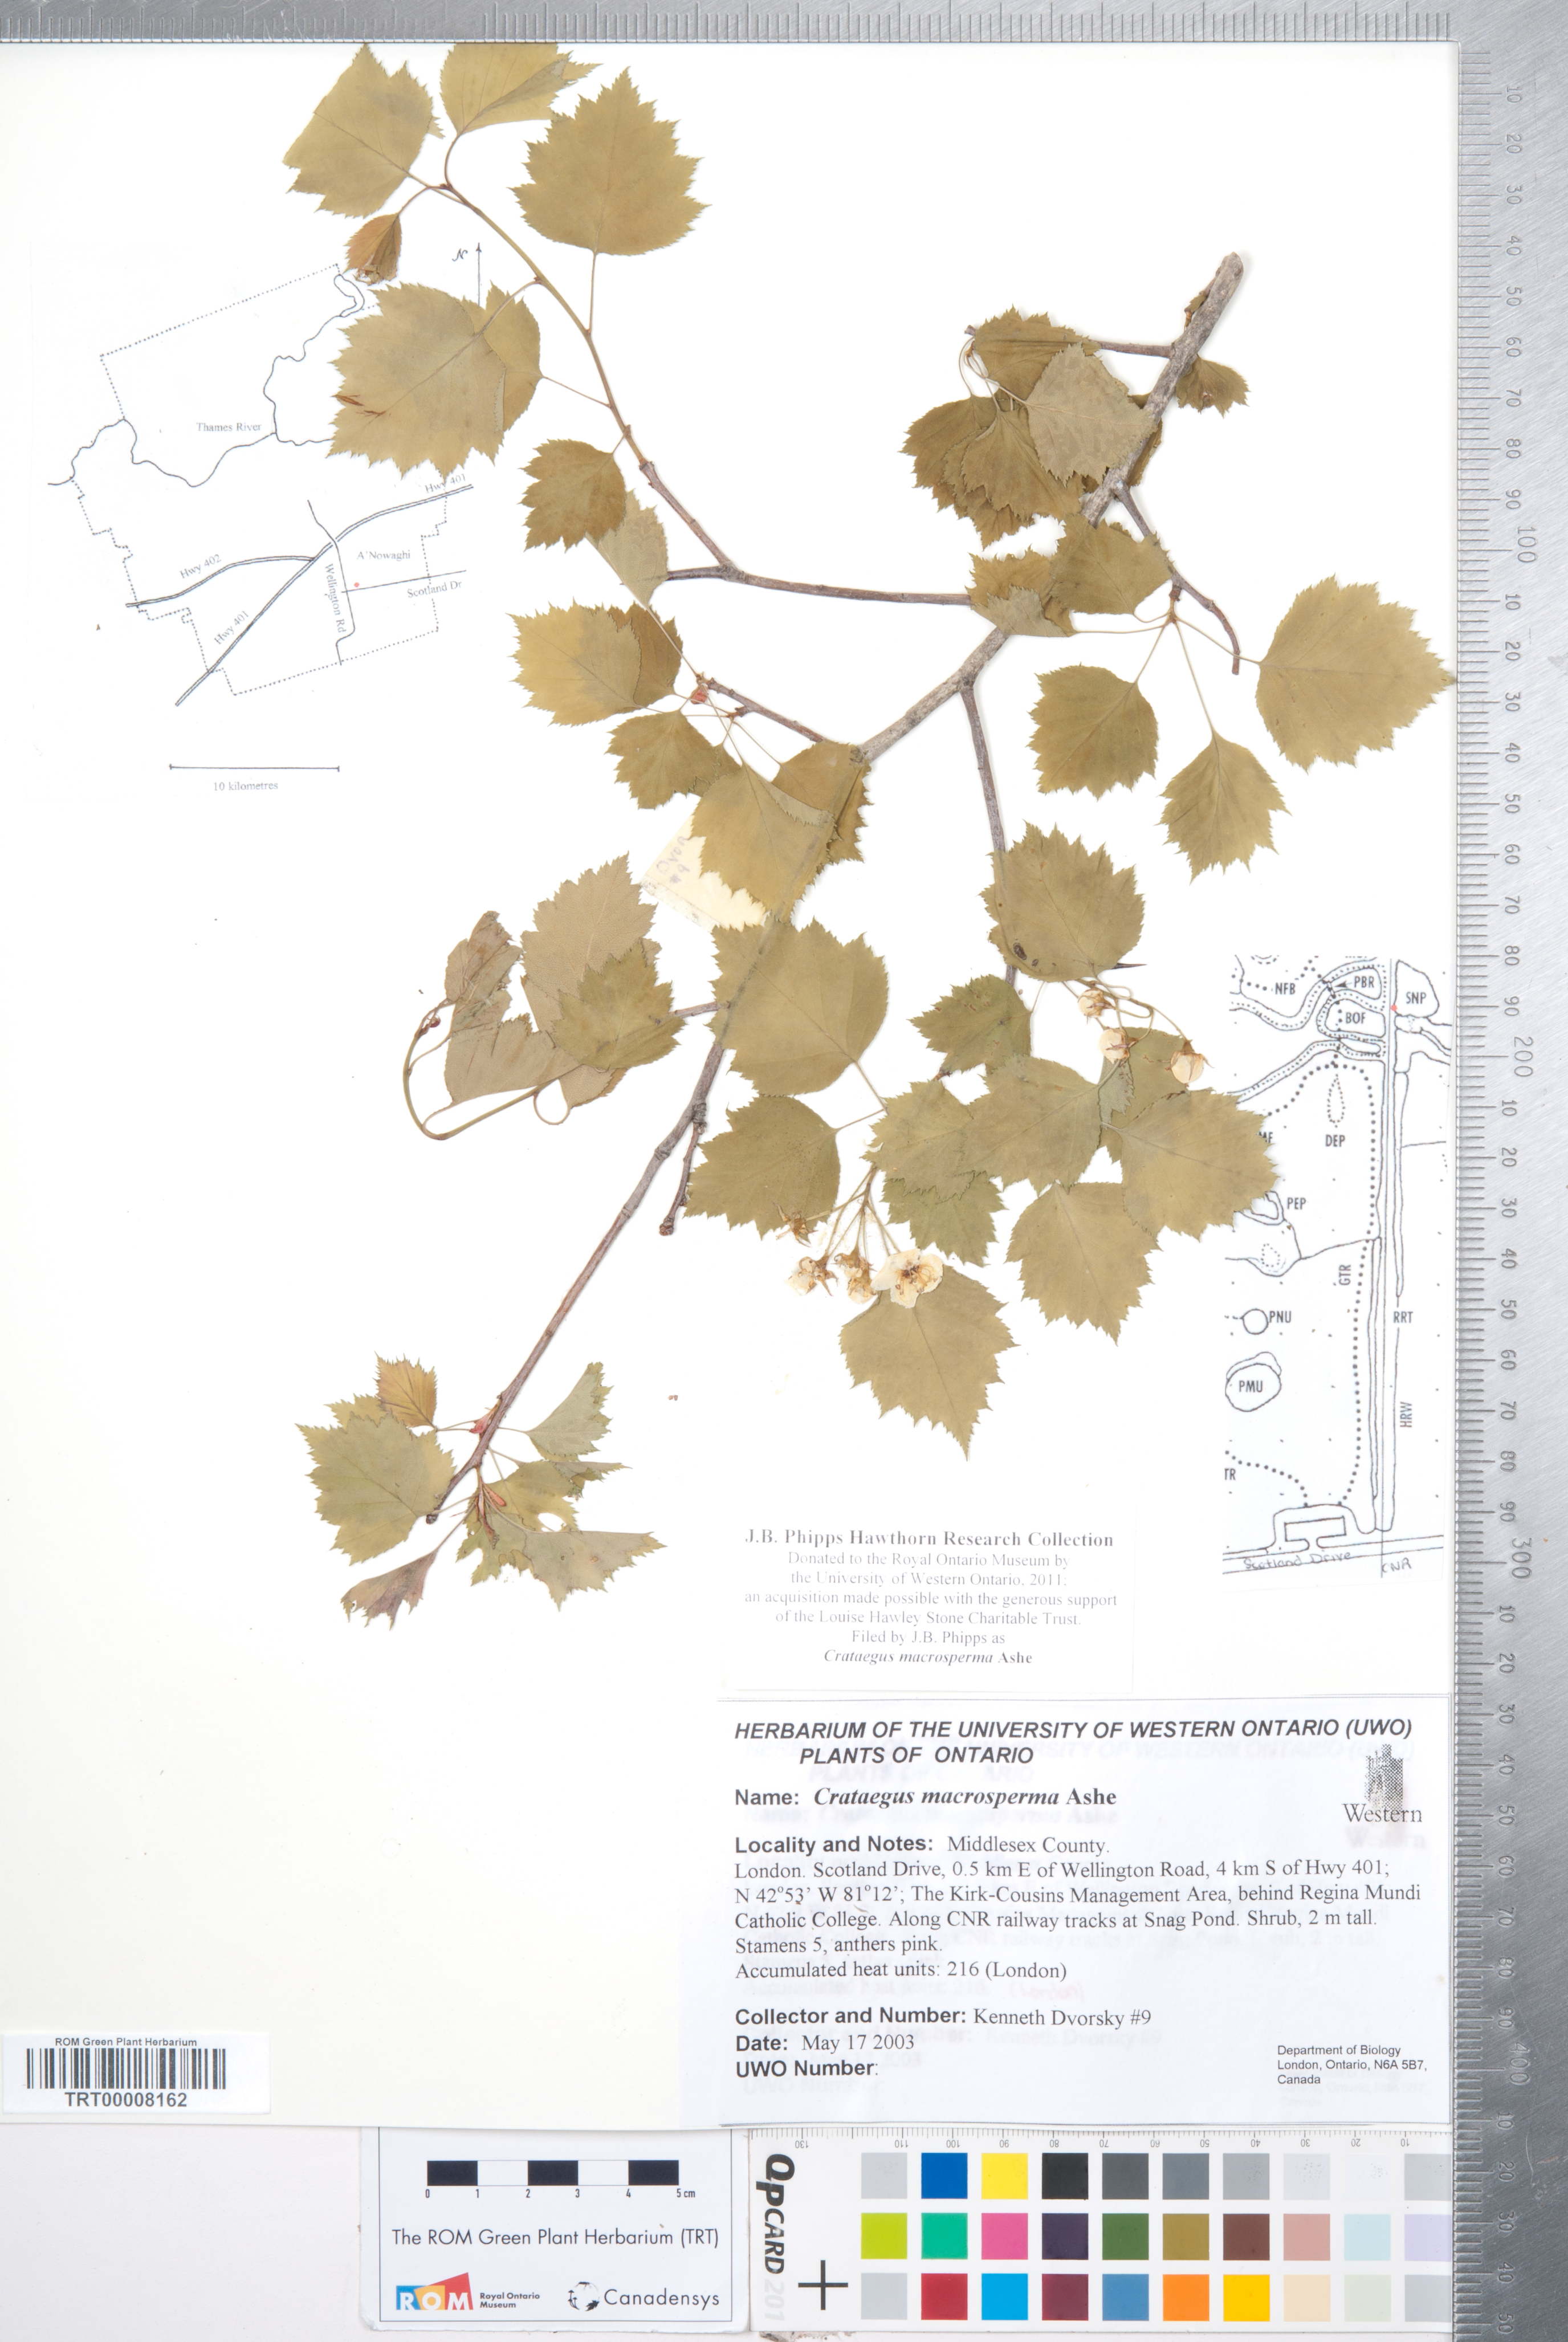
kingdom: Plantae
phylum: Tracheophyta
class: Magnoliopsida
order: Rosales
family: Rosaceae
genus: Crataegus
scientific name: Crataegus macrosperma
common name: Variable hawthorn
